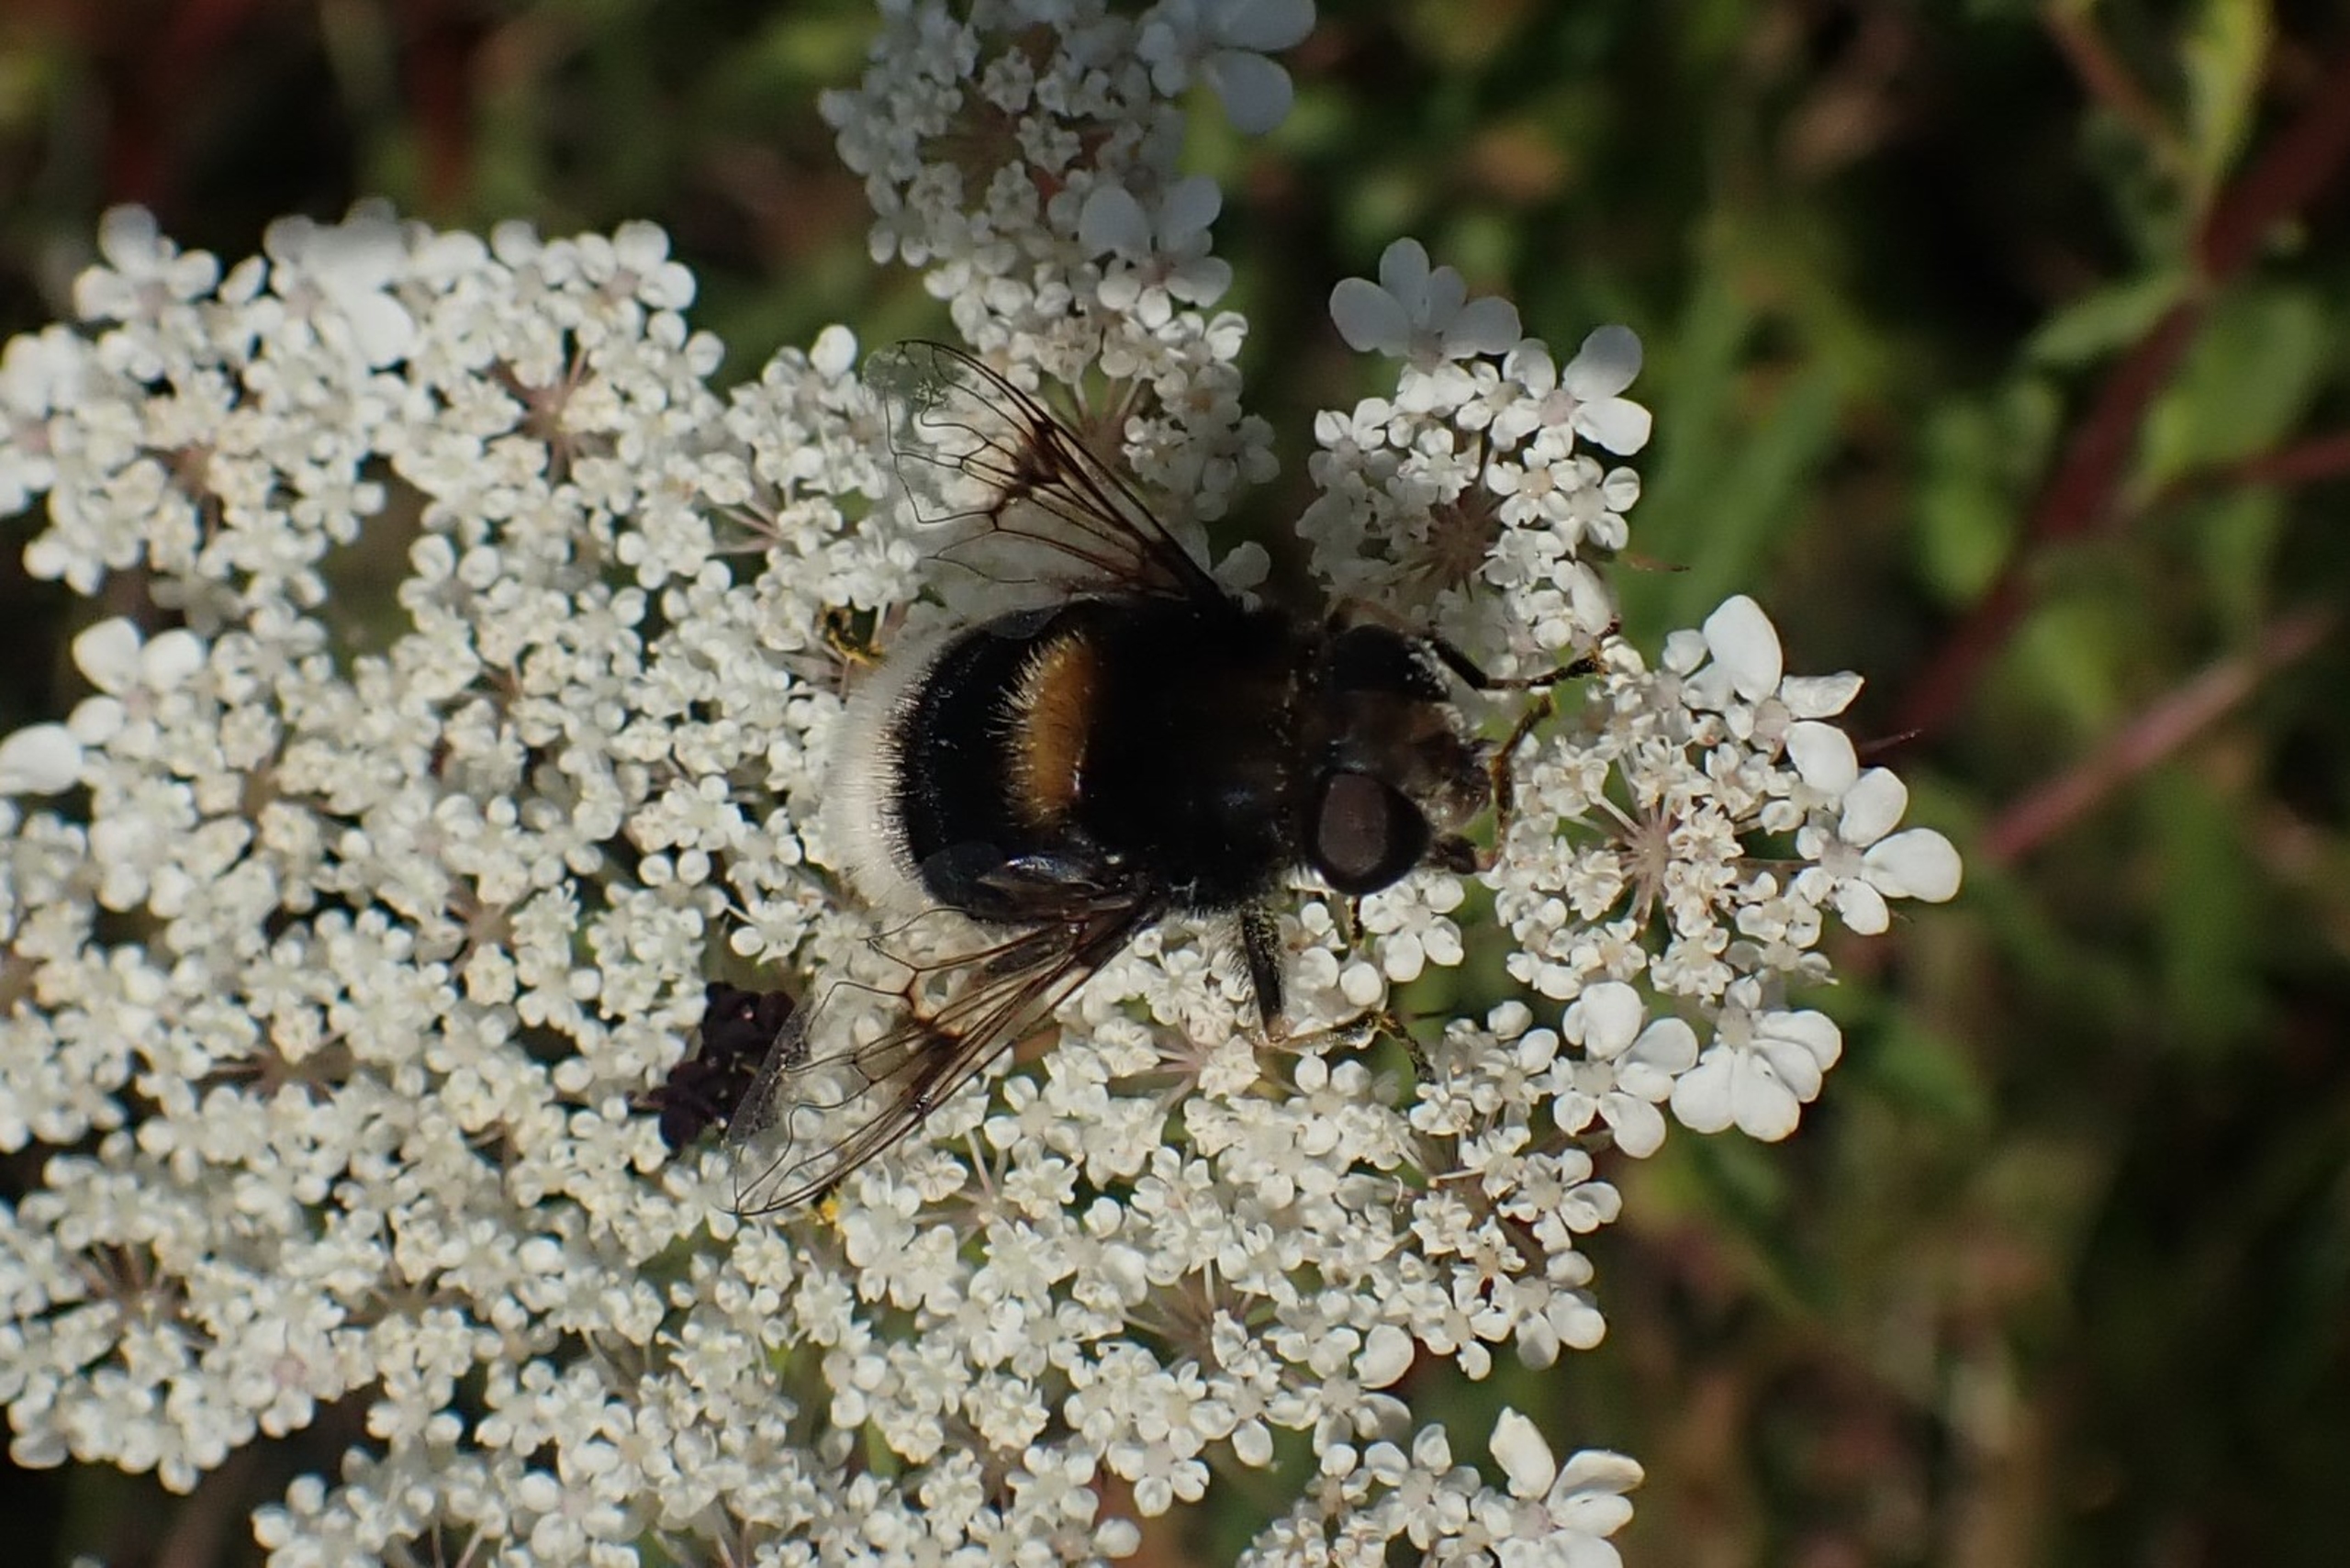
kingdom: Animalia
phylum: Arthropoda
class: Insecta
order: Diptera
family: Syrphidae
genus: Eristalis
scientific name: Eristalis intricaria
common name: Håret dyndflue
